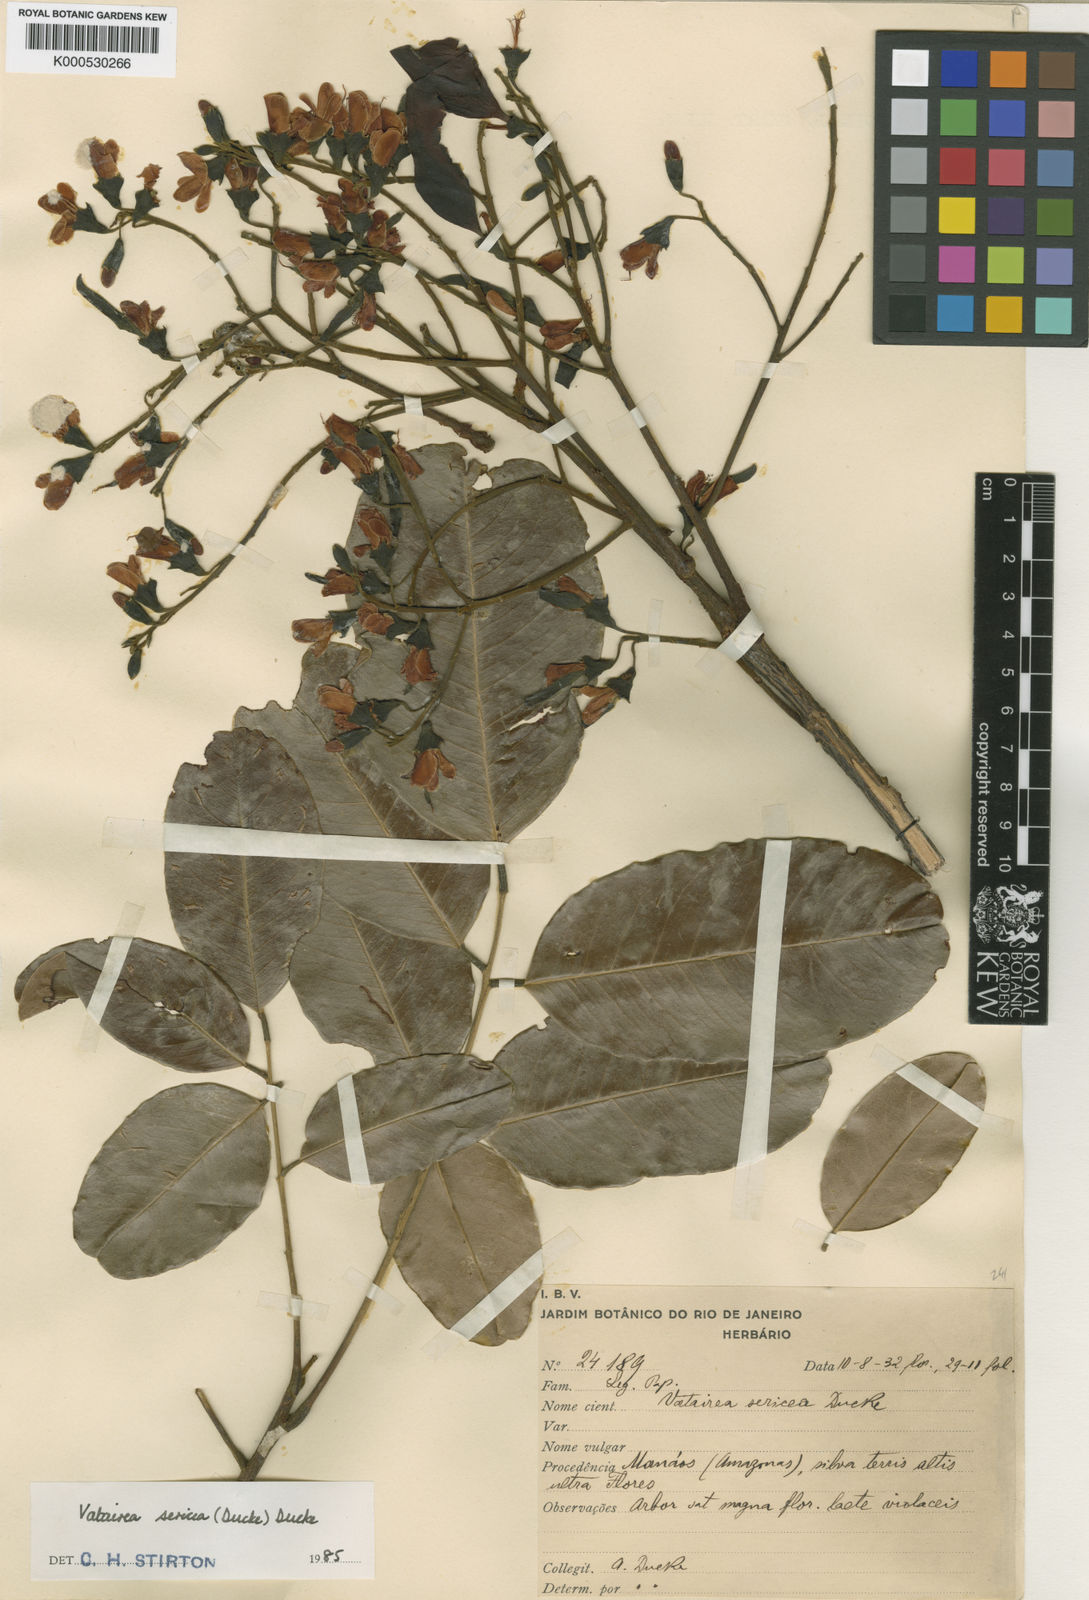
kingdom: Plantae
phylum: Tracheophyta
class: Magnoliopsida
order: Fabales
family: Fabaceae
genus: Vatairea
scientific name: Vatairea sericea
